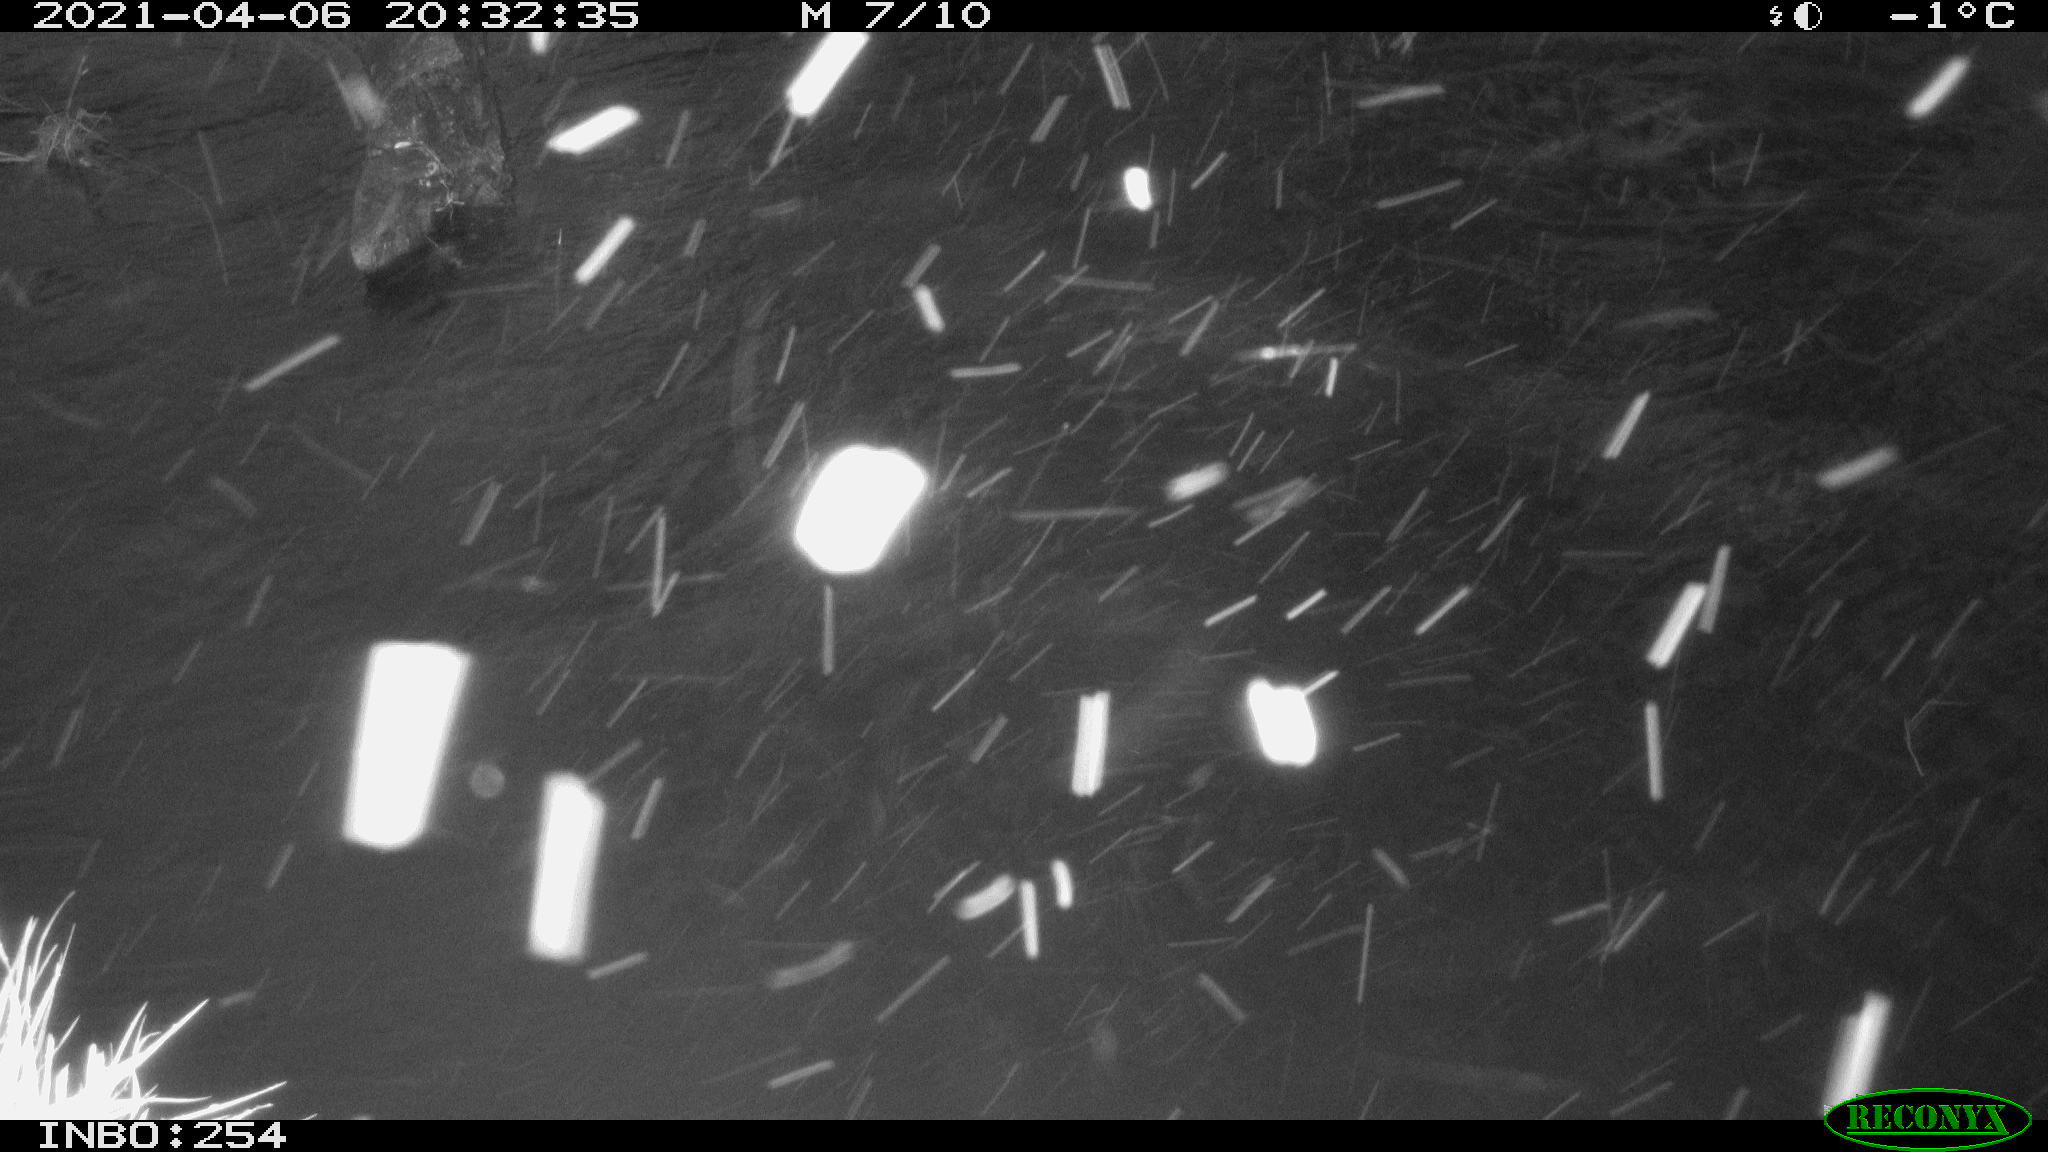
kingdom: Animalia
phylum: Chordata
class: Aves
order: Anseriformes
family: Anatidae
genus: Anas
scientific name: Anas
